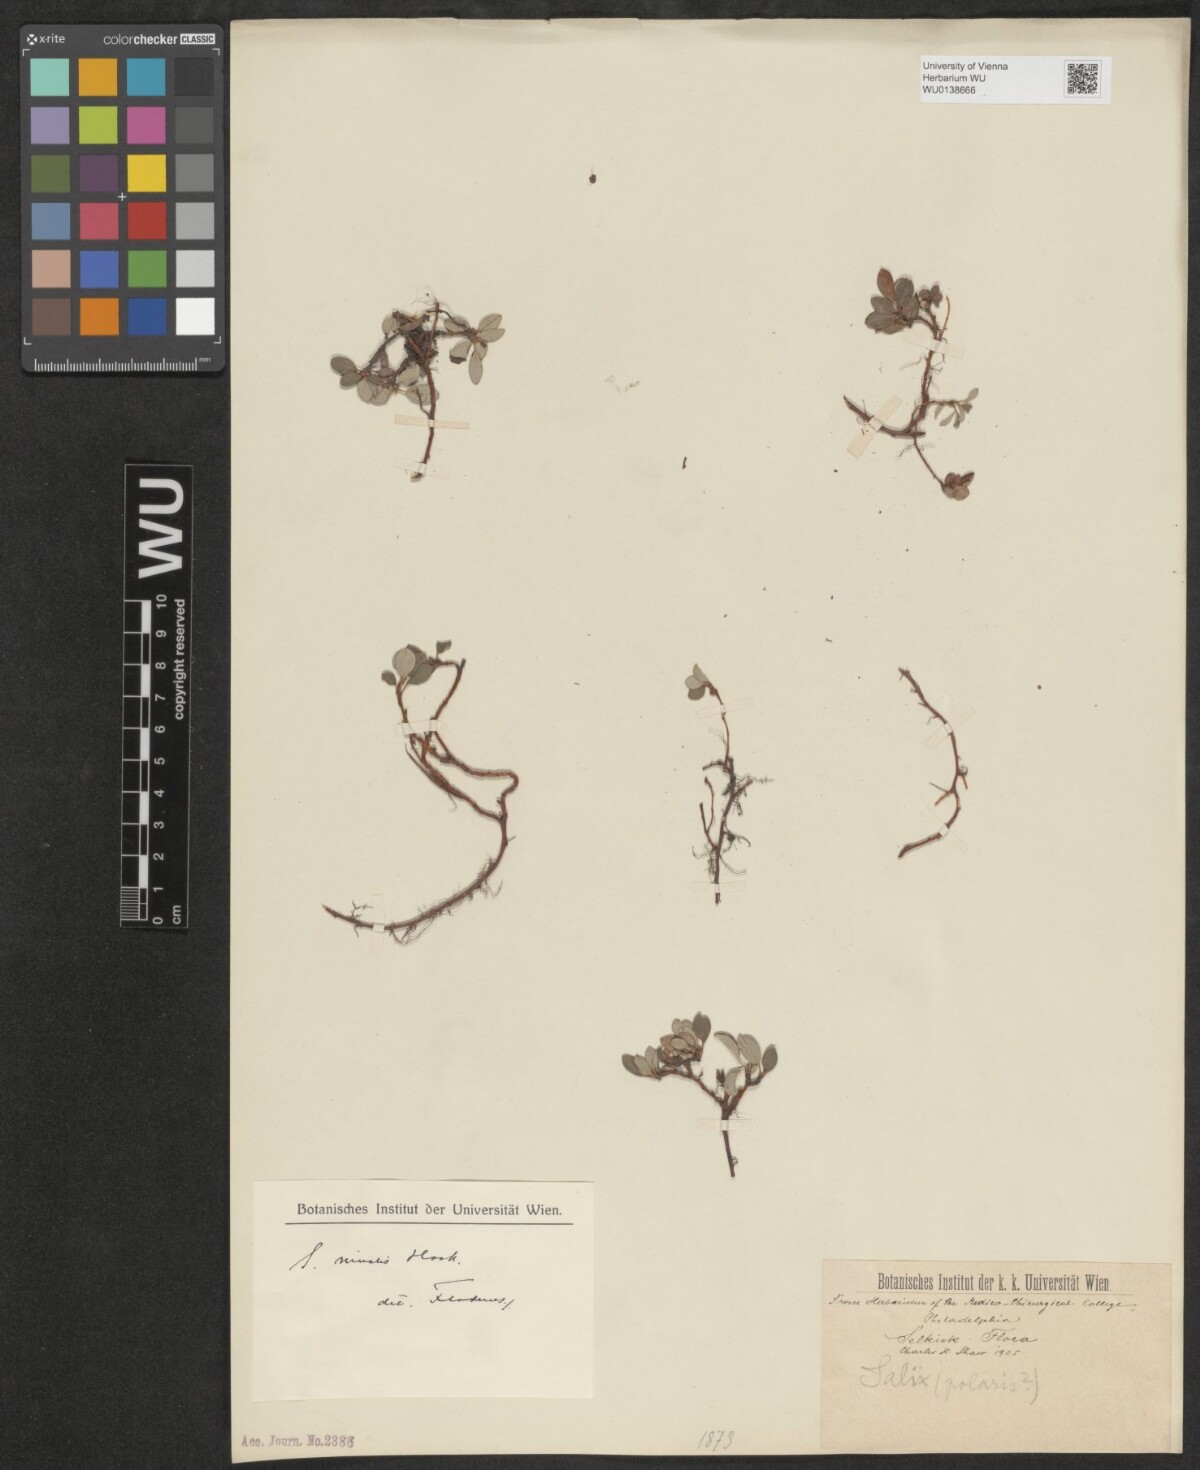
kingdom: Plantae
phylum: Tracheophyta
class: Magnoliopsida
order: Malpighiales
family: Salicaceae
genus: Salix
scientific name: Salix nivalis
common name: Dwarf snow willow
